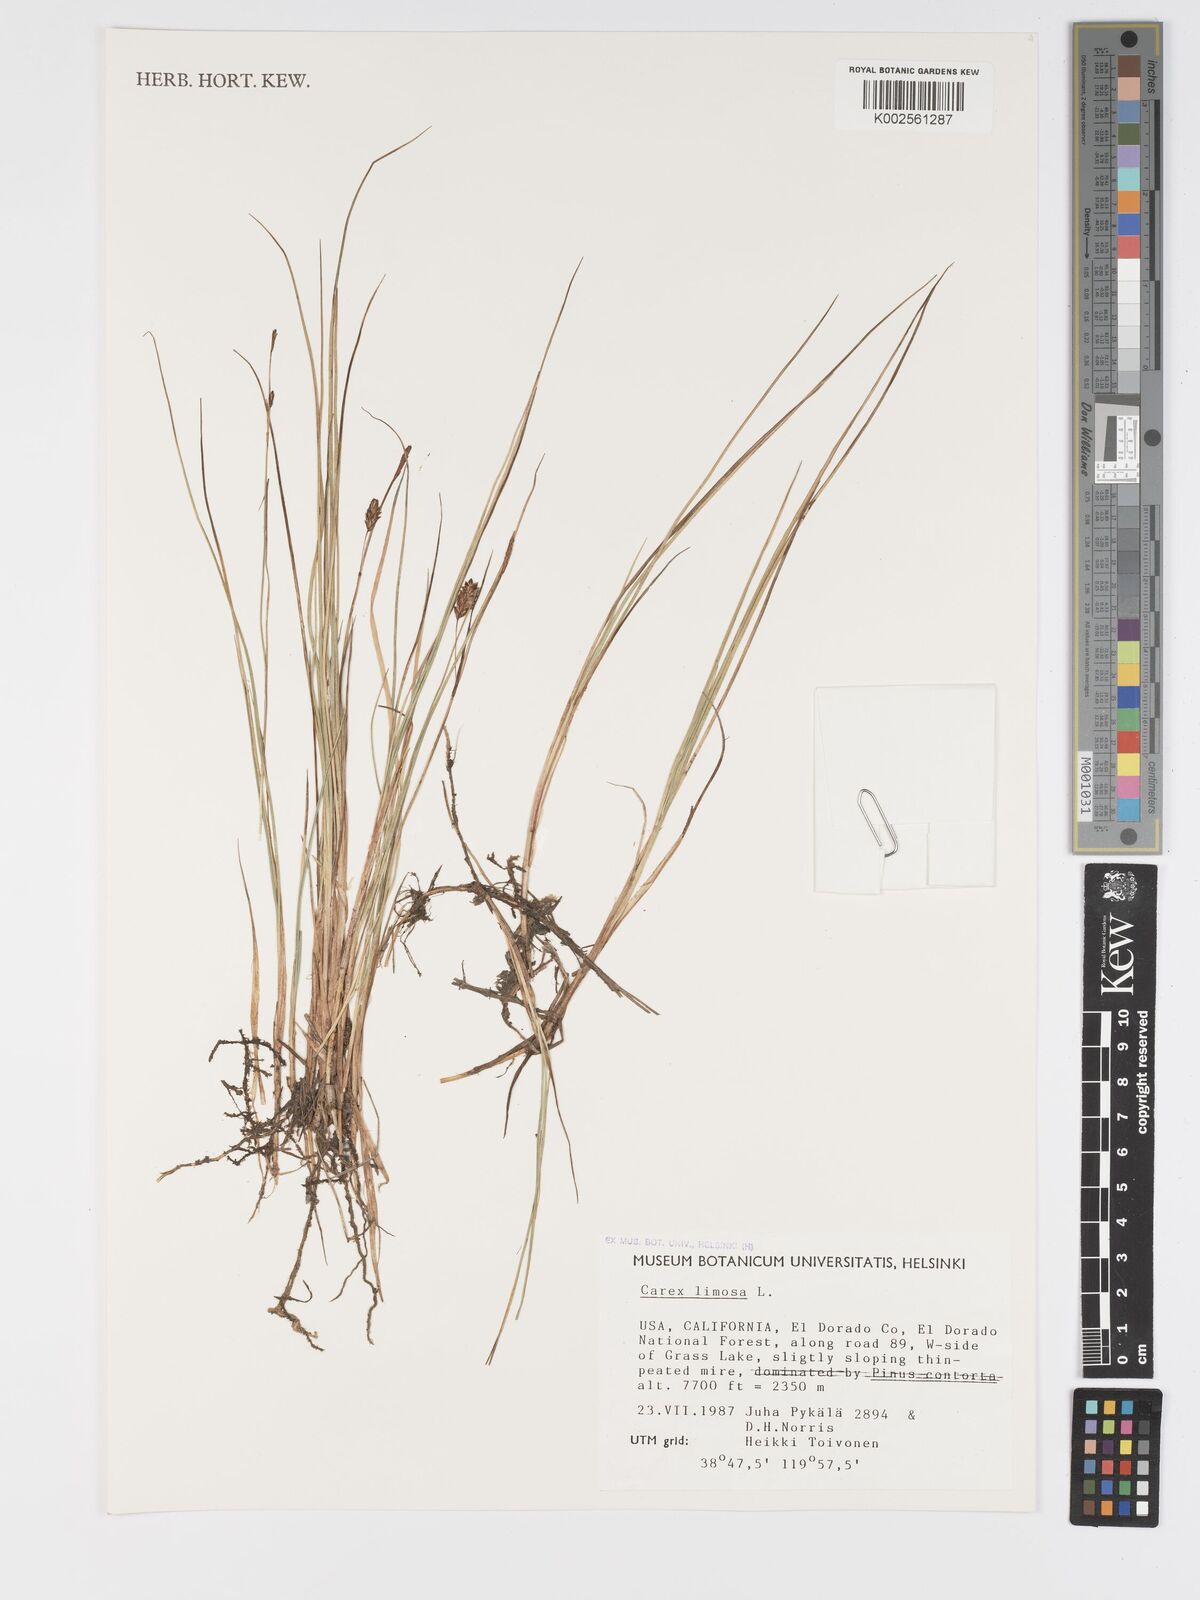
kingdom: Plantae
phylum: Tracheophyta
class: Liliopsida
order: Poales
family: Cyperaceae
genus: Carex
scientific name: Carex limosa
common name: Bog sedge
